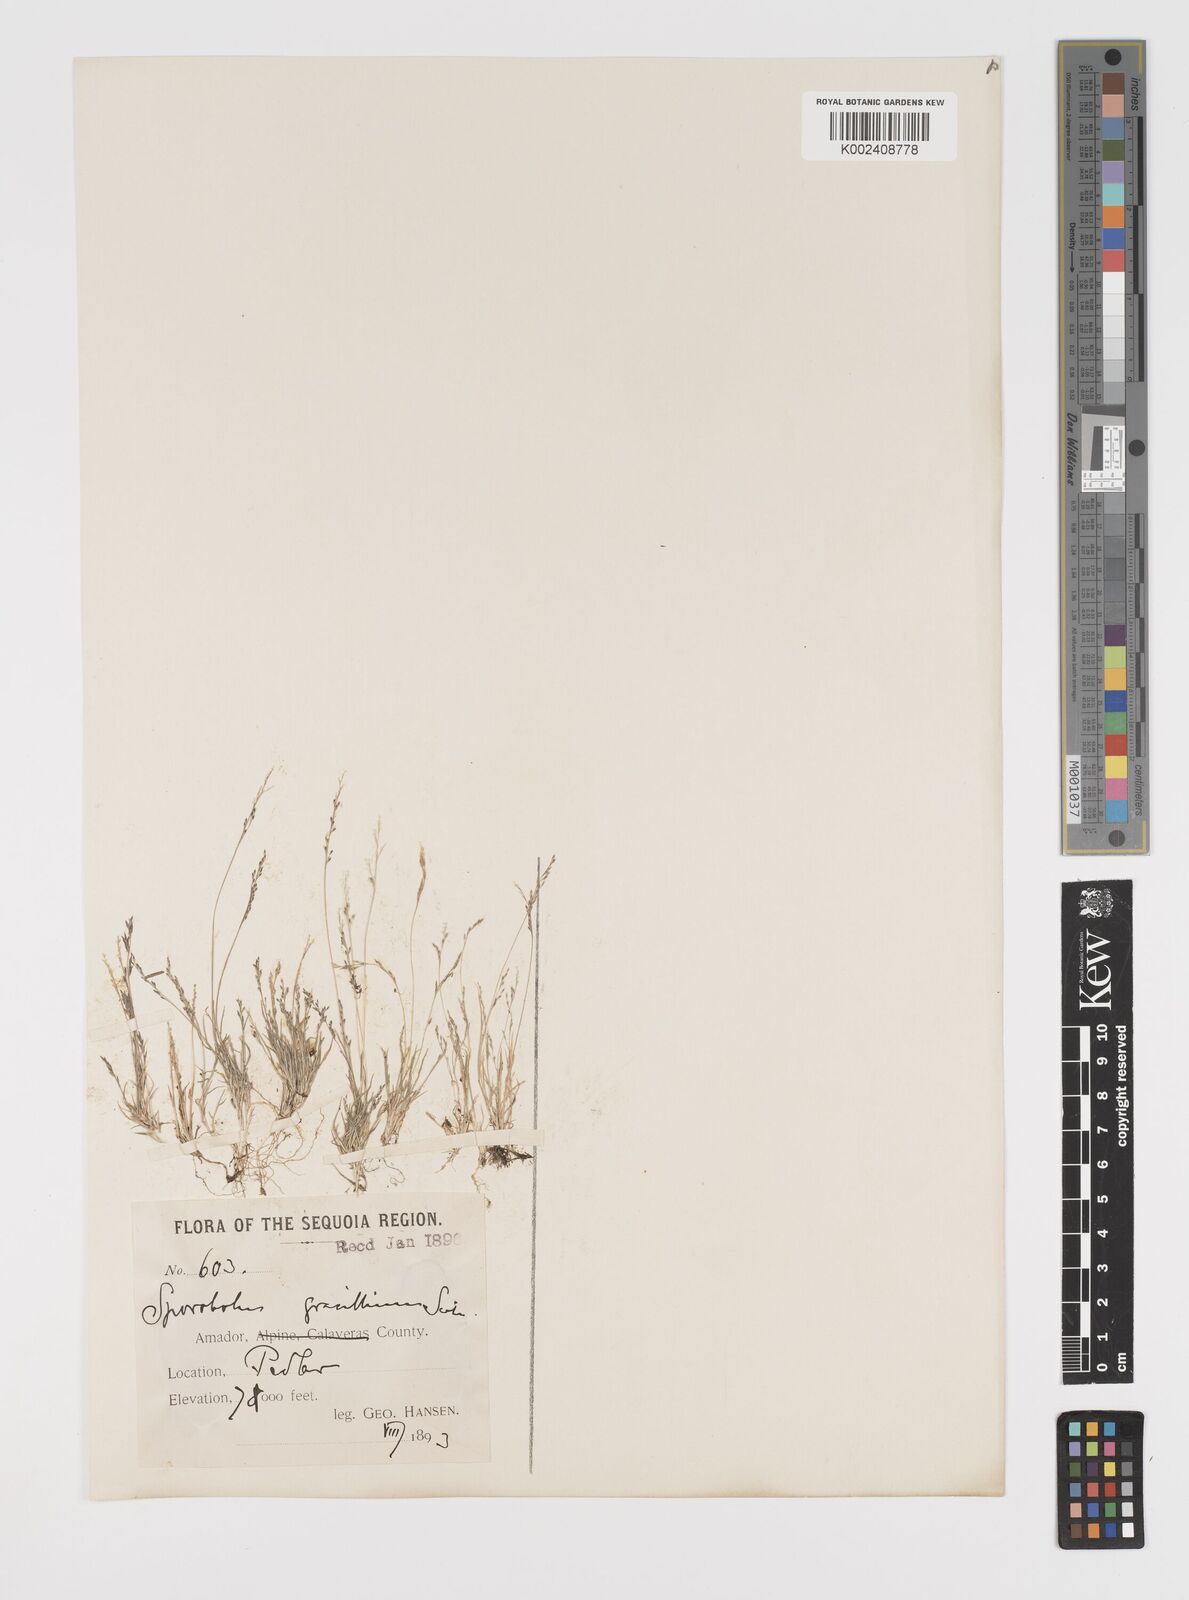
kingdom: Plantae
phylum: Tracheophyta
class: Liliopsida
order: Poales
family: Poaceae
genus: Leptochloa
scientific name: Leptochloa mucronata
